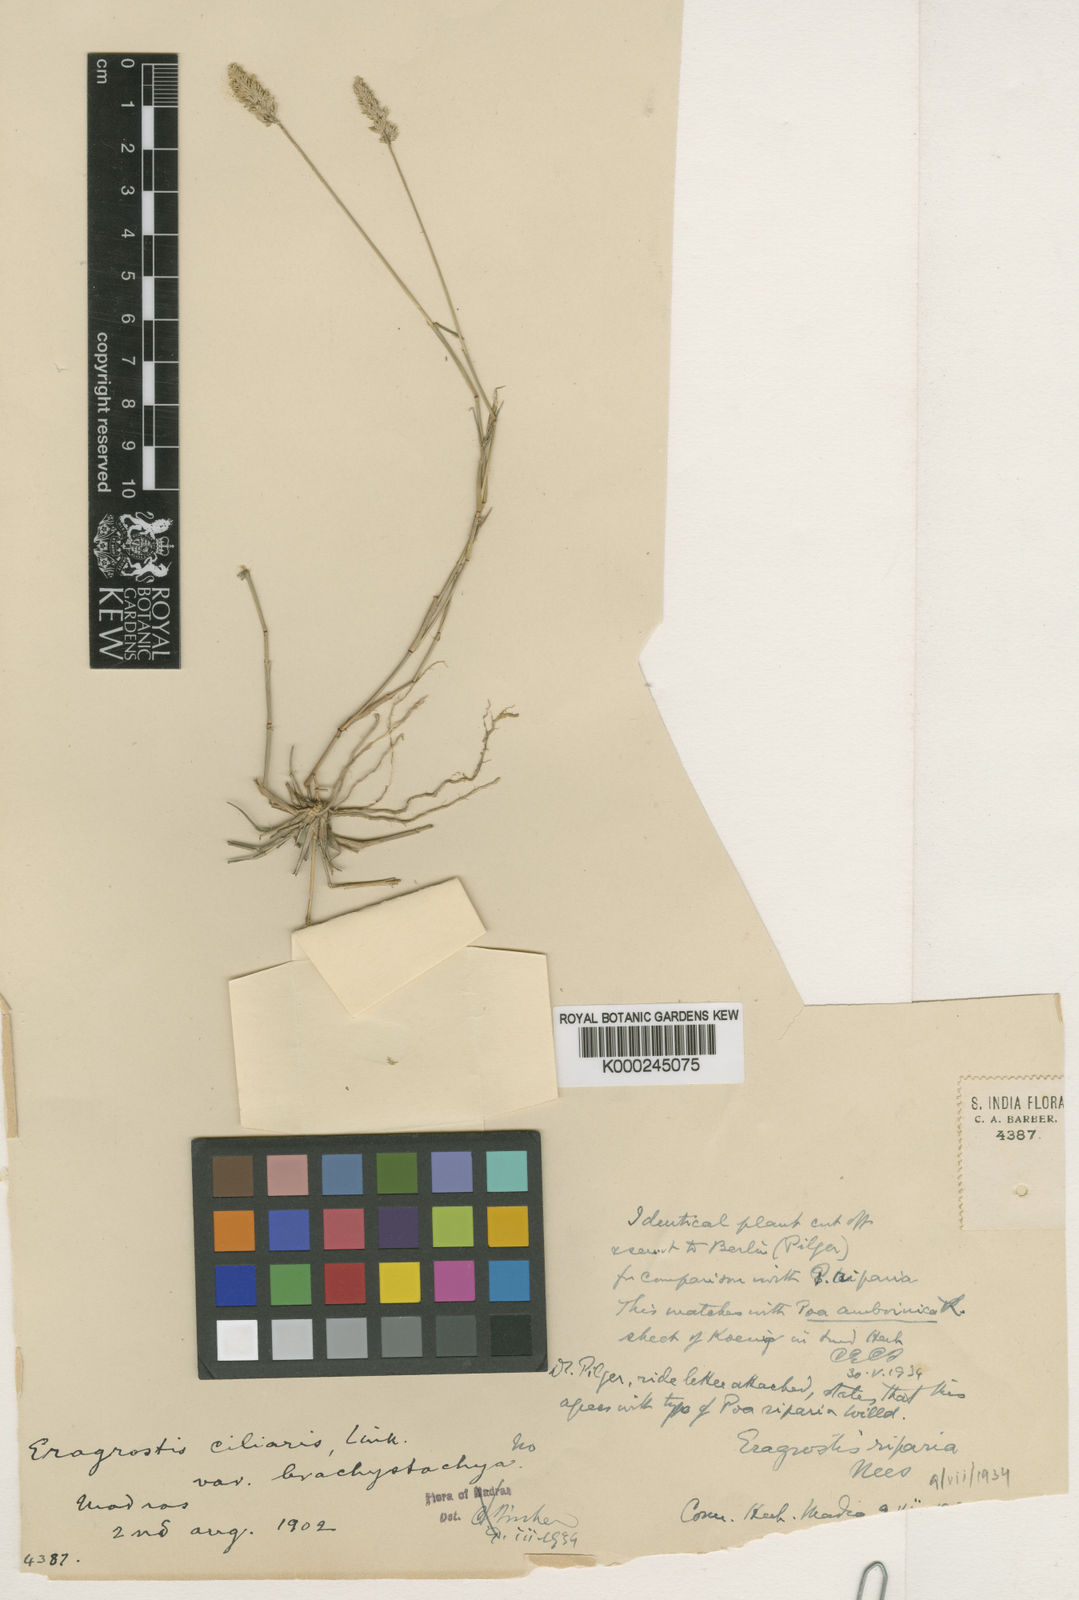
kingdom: Plantae
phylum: Tracheophyta
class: Liliopsida
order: Poales
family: Poaceae
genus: Eragrostis
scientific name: Eragrostis riparia
